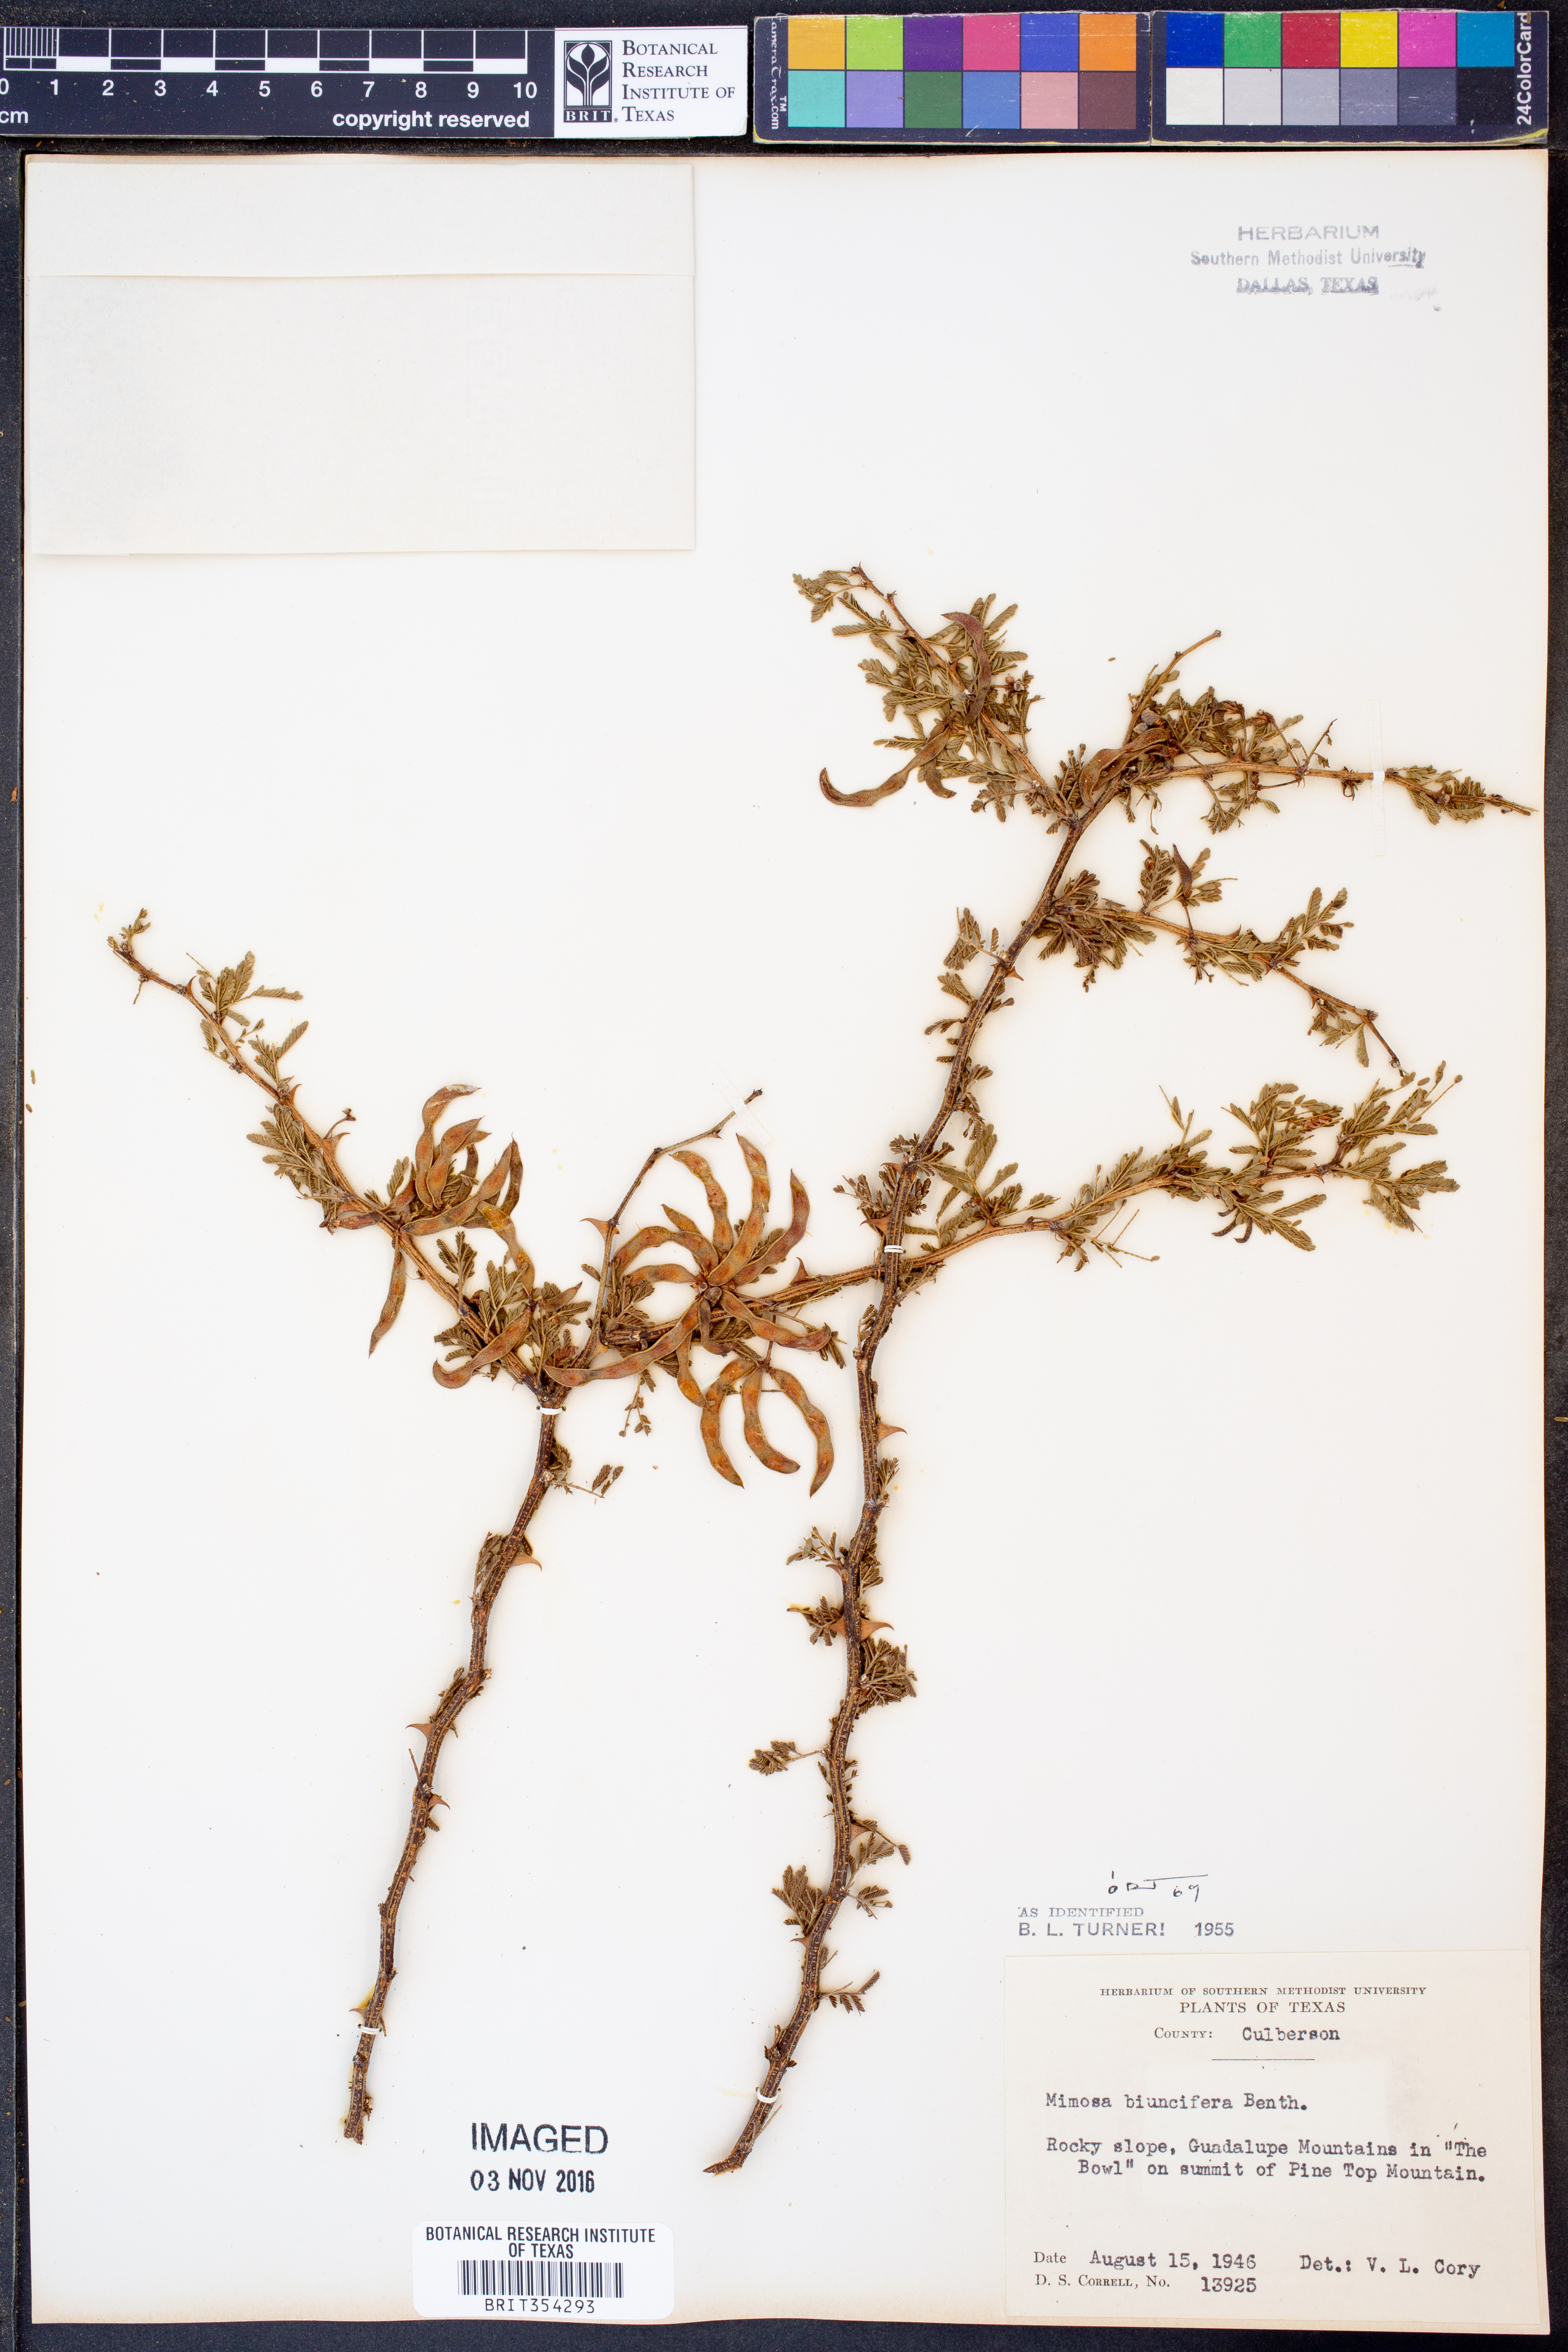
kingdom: Plantae
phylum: Tracheophyta
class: Magnoliopsida
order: Fabales
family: Fabaceae
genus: Mimosa
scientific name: Mimosa biuncifera
